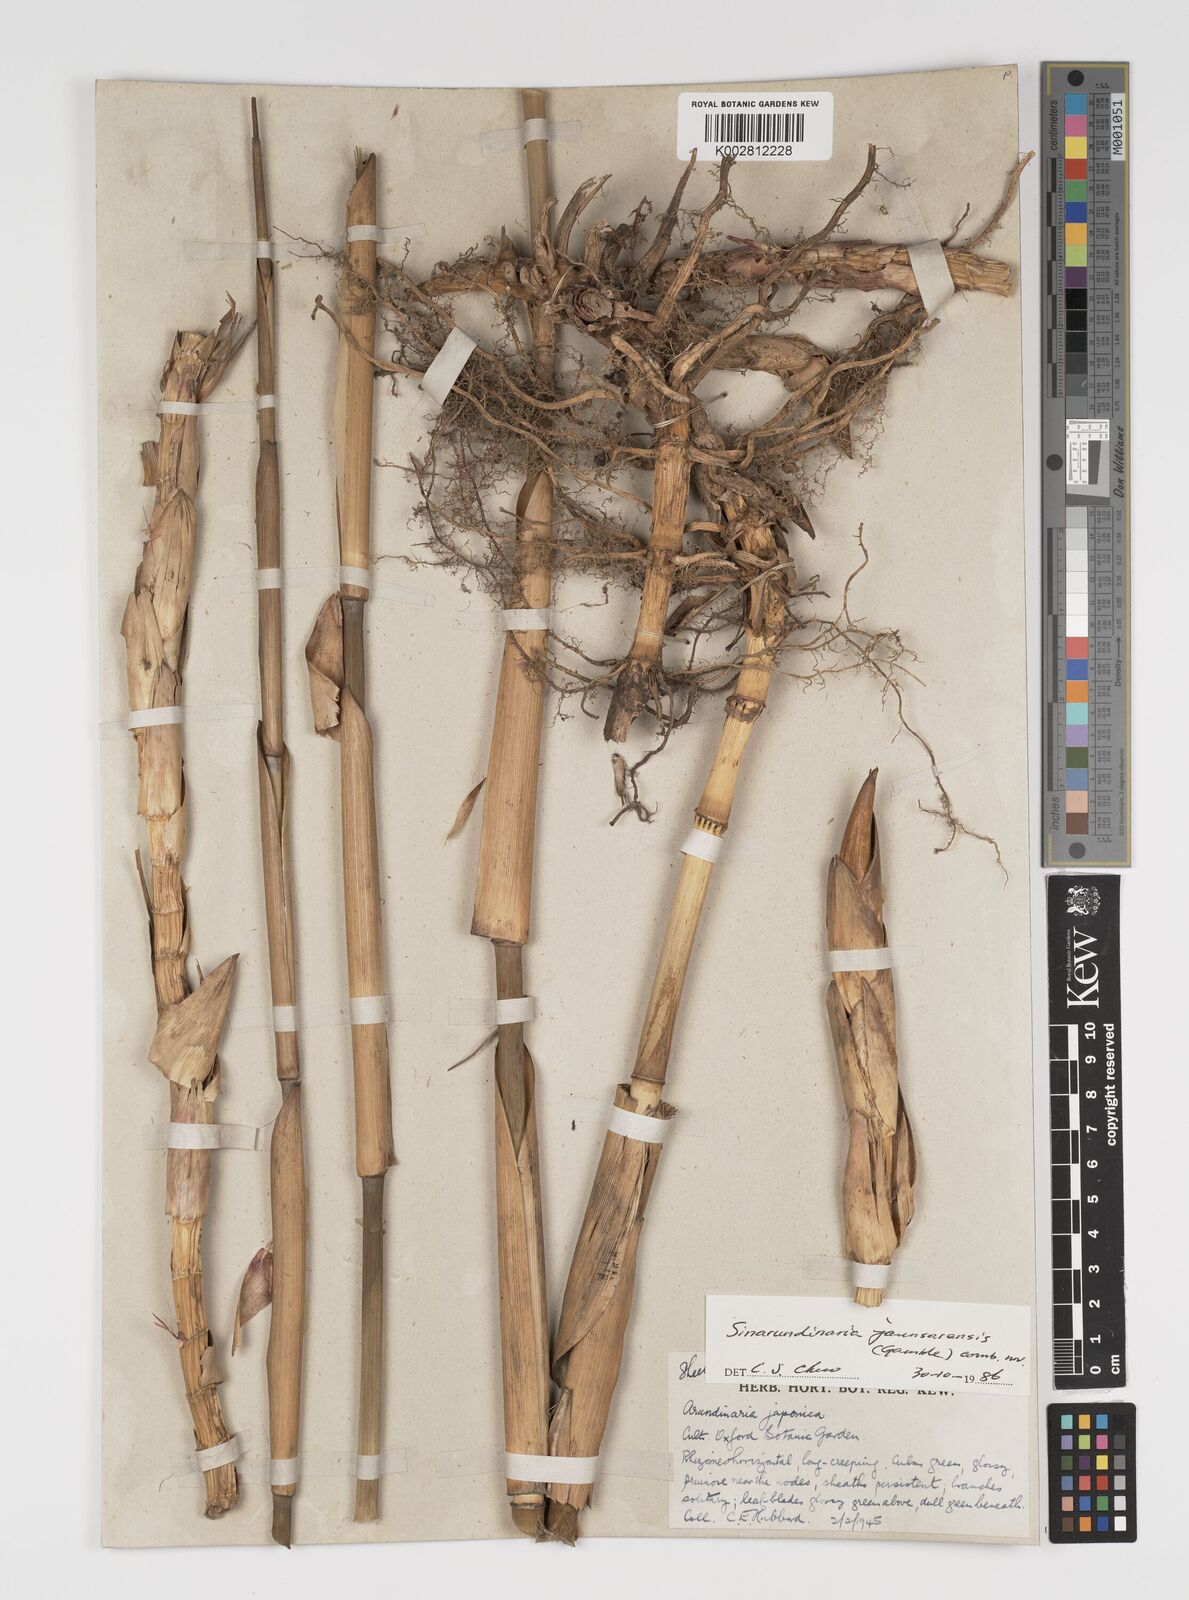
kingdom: Plantae
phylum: Tracheophyta
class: Liliopsida
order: Poales
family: Poaceae
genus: Yushania
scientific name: Yushania anceps
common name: Indian fountain-bamboo
